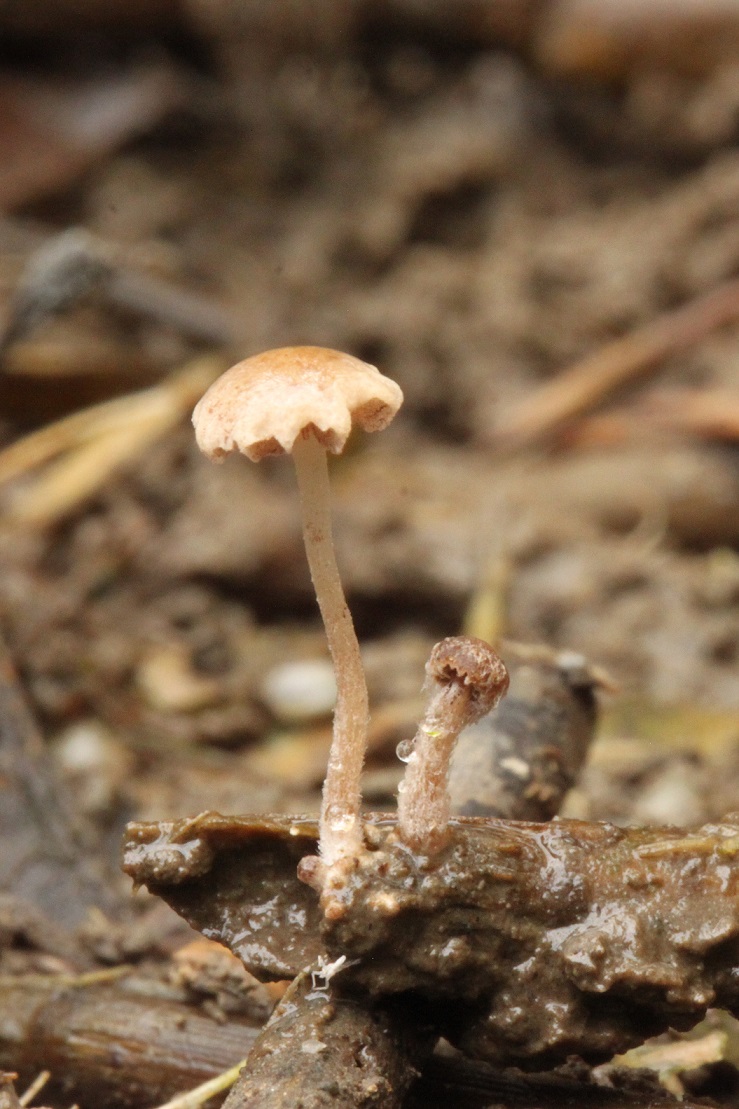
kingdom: Fungi
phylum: Basidiomycota
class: Agaricomycetes
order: Agaricales
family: Psathyrellaceae
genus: Psathyrella
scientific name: Psathyrella thujina
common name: staude-mørkhat
